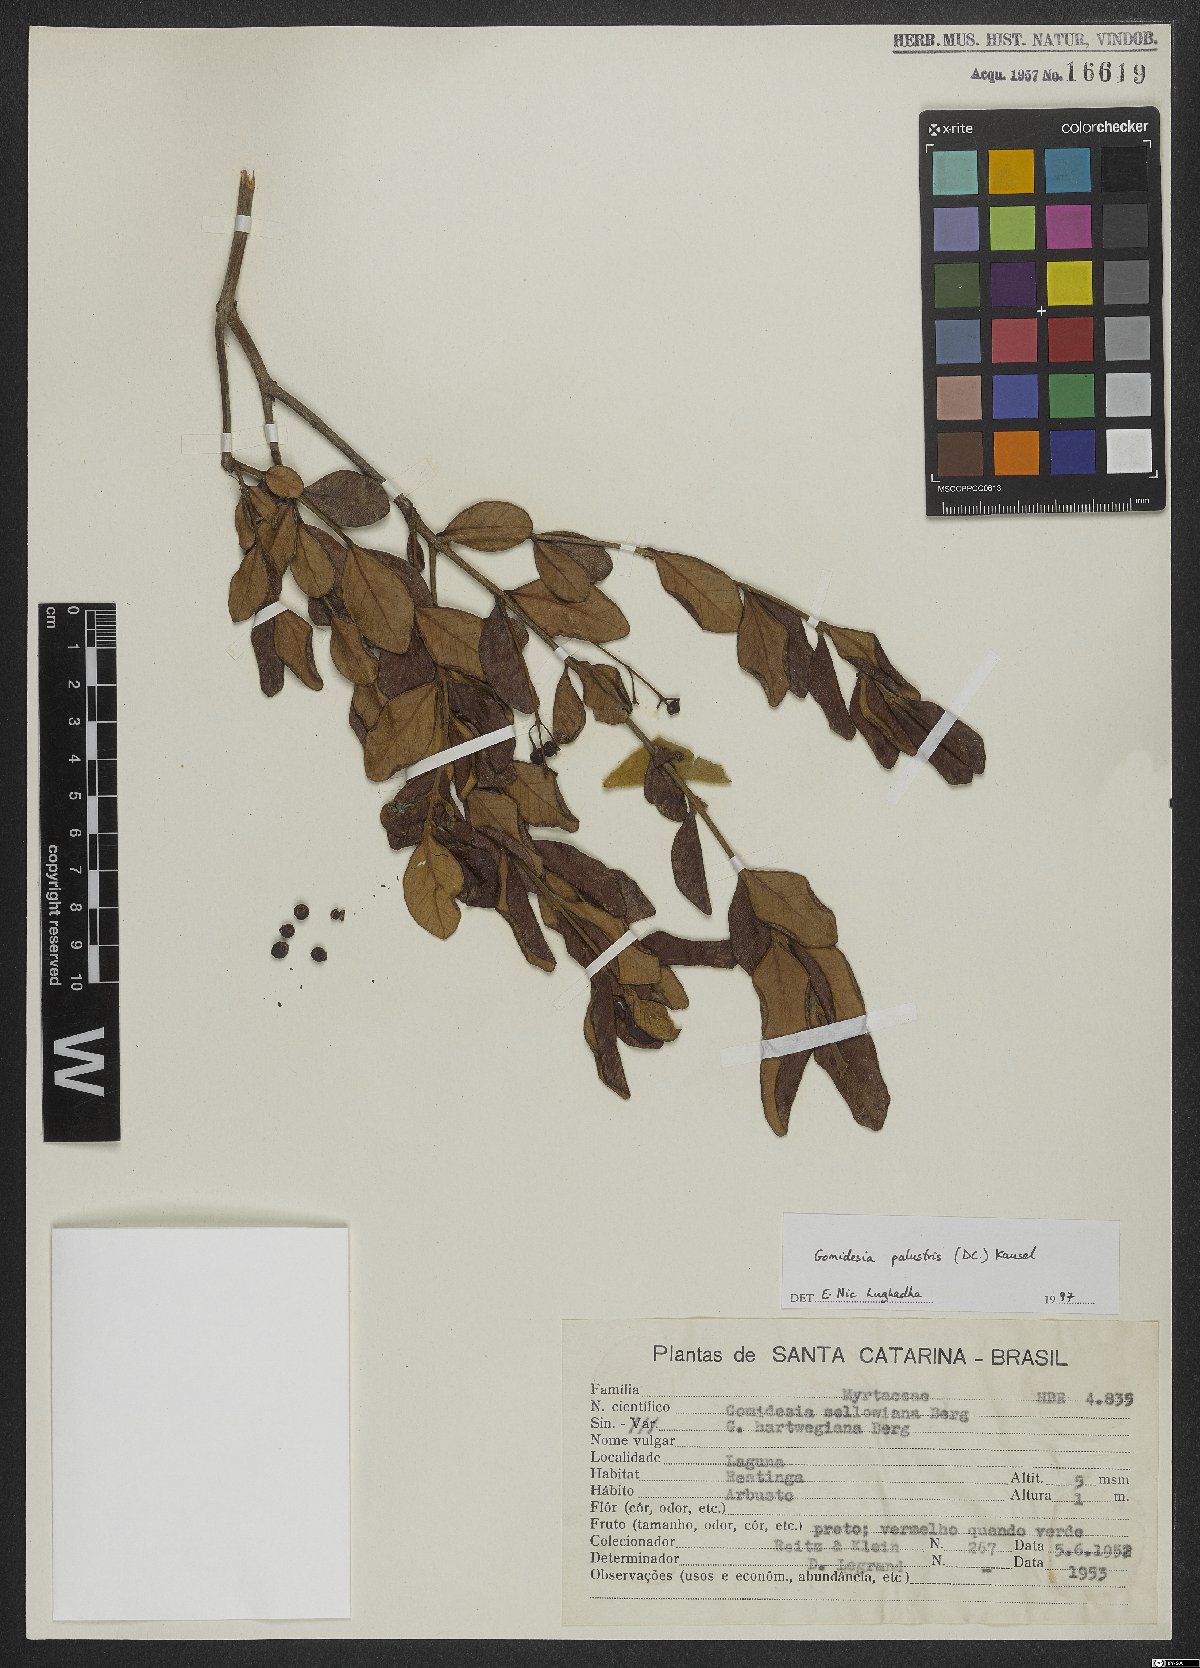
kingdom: Plantae
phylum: Tracheophyta
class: Magnoliopsida
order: Myrtales
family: Myrtaceae
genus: Myrcia
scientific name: Myrcia palustris
